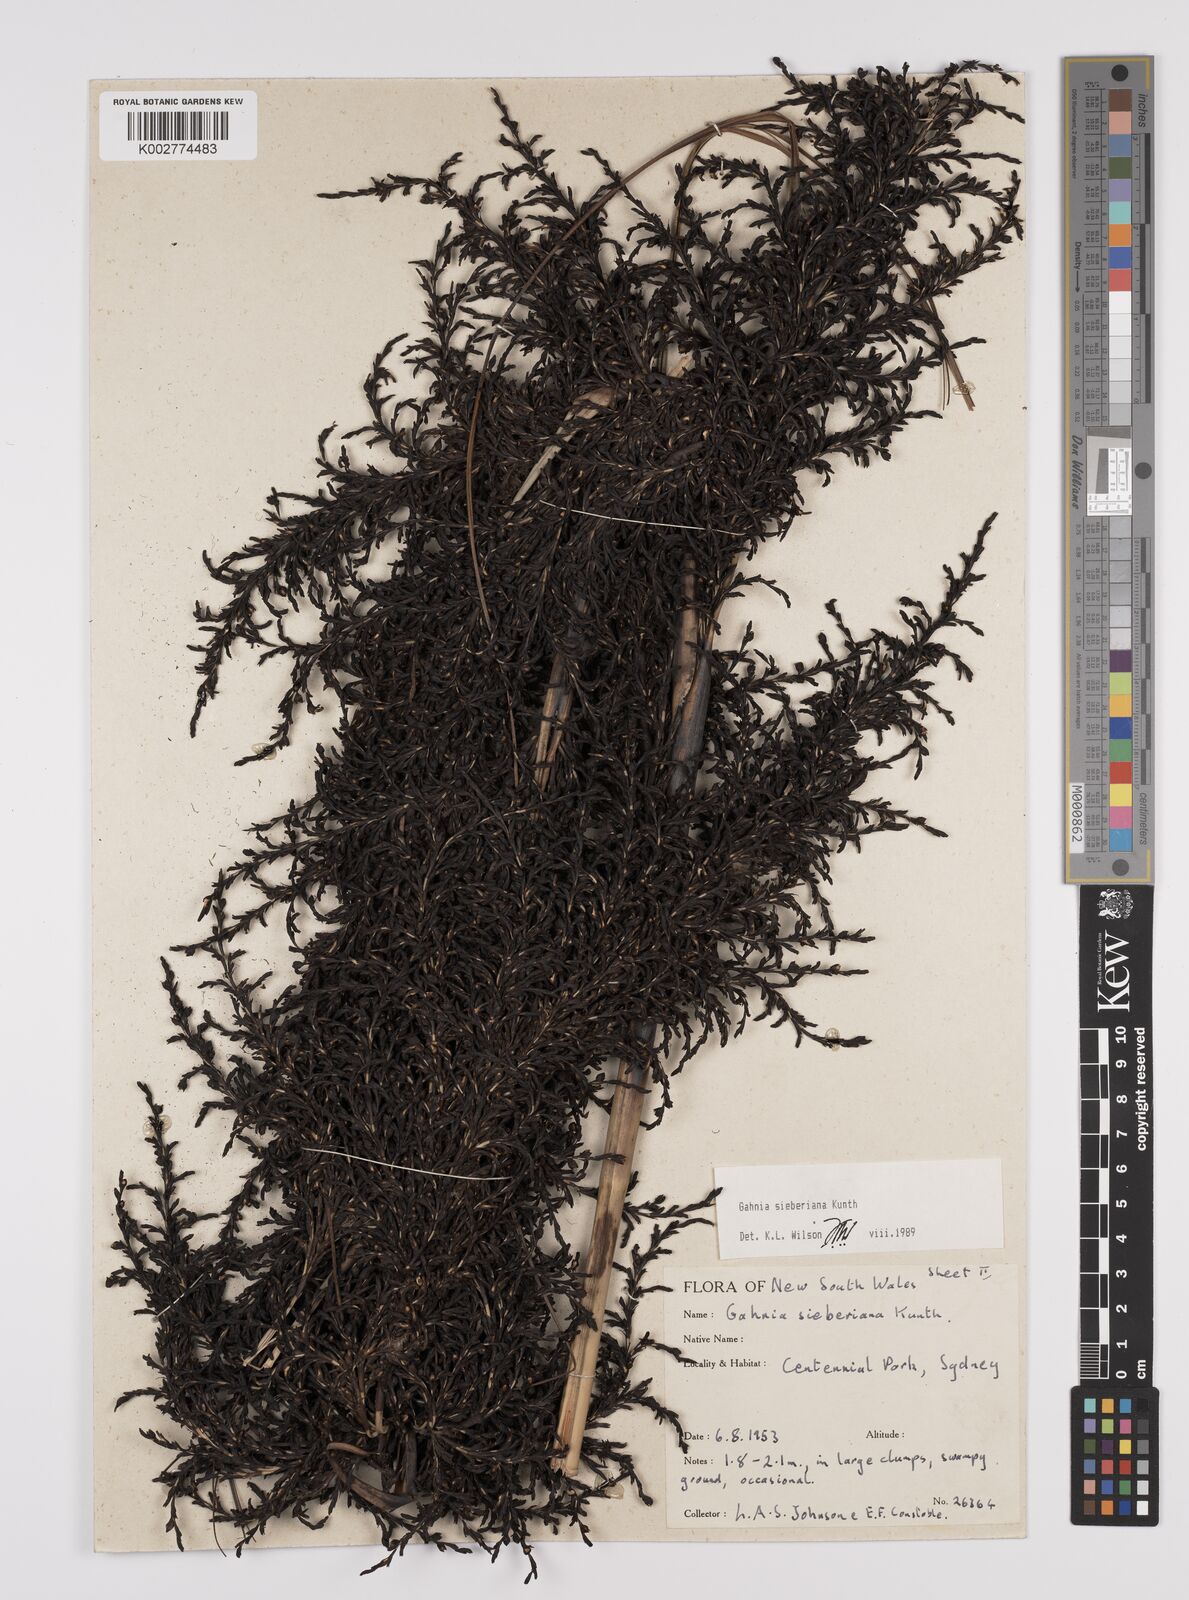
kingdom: Plantae
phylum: Tracheophyta
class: Liliopsida
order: Poales
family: Cyperaceae
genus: Gahnia
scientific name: Gahnia sieberiana
